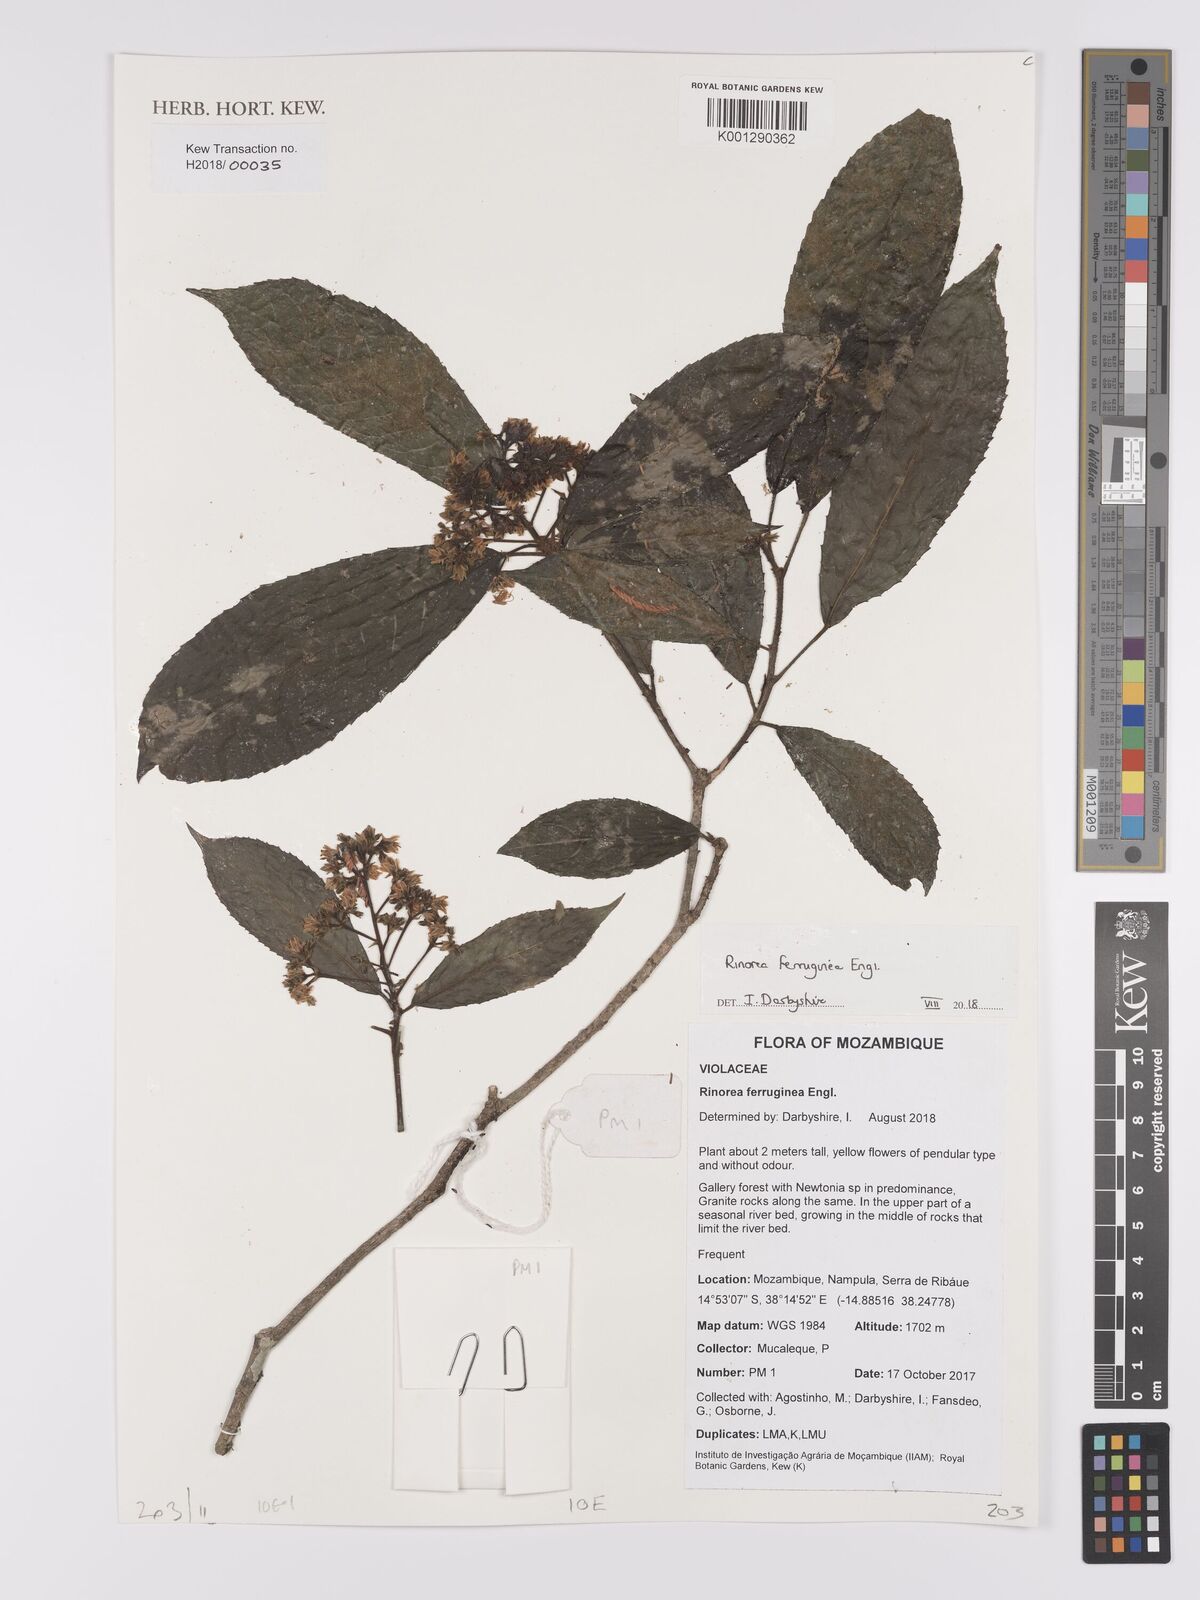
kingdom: Plantae
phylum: Tracheophyta
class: Magnoliopsida
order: Malpighiales
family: Violaceae
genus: Rinorea
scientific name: Rinorea ferruginea
